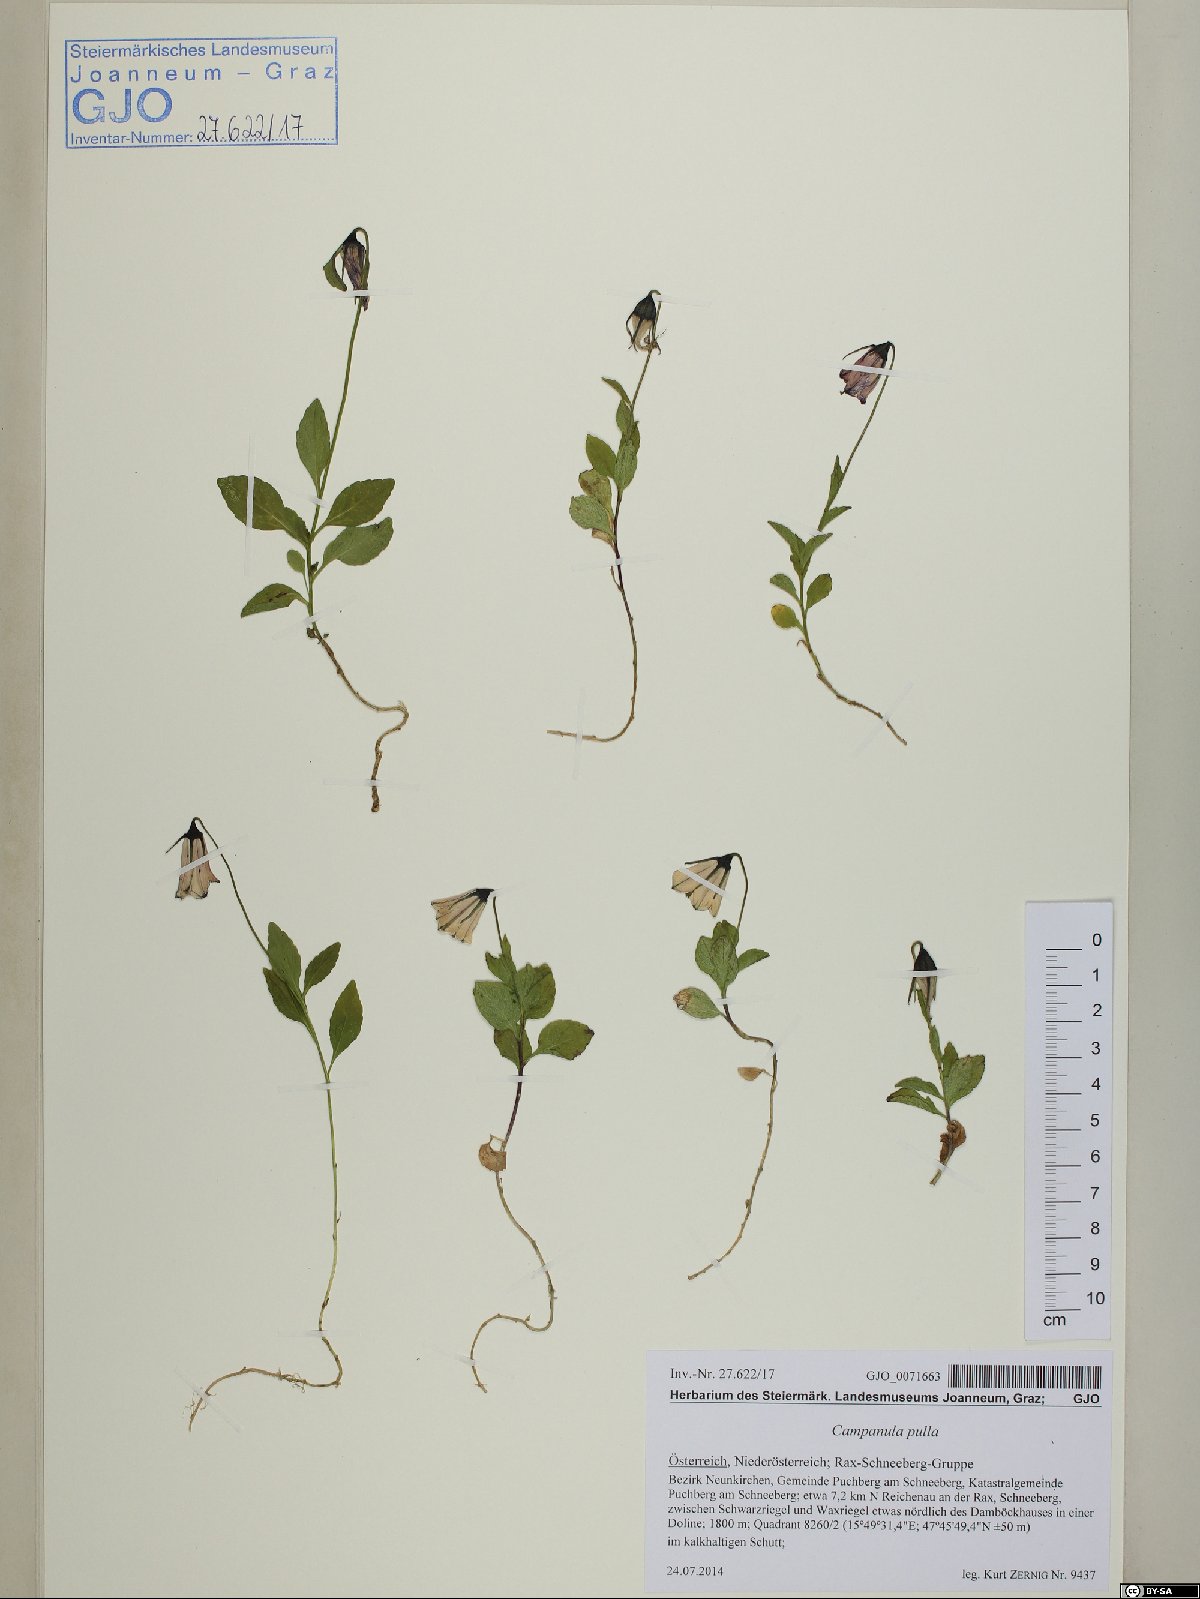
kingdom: Plantae
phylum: Tracheophyta
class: Magnoliopsida
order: Asterales
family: Campanulaceae
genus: Campanula
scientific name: Campanula pulla
